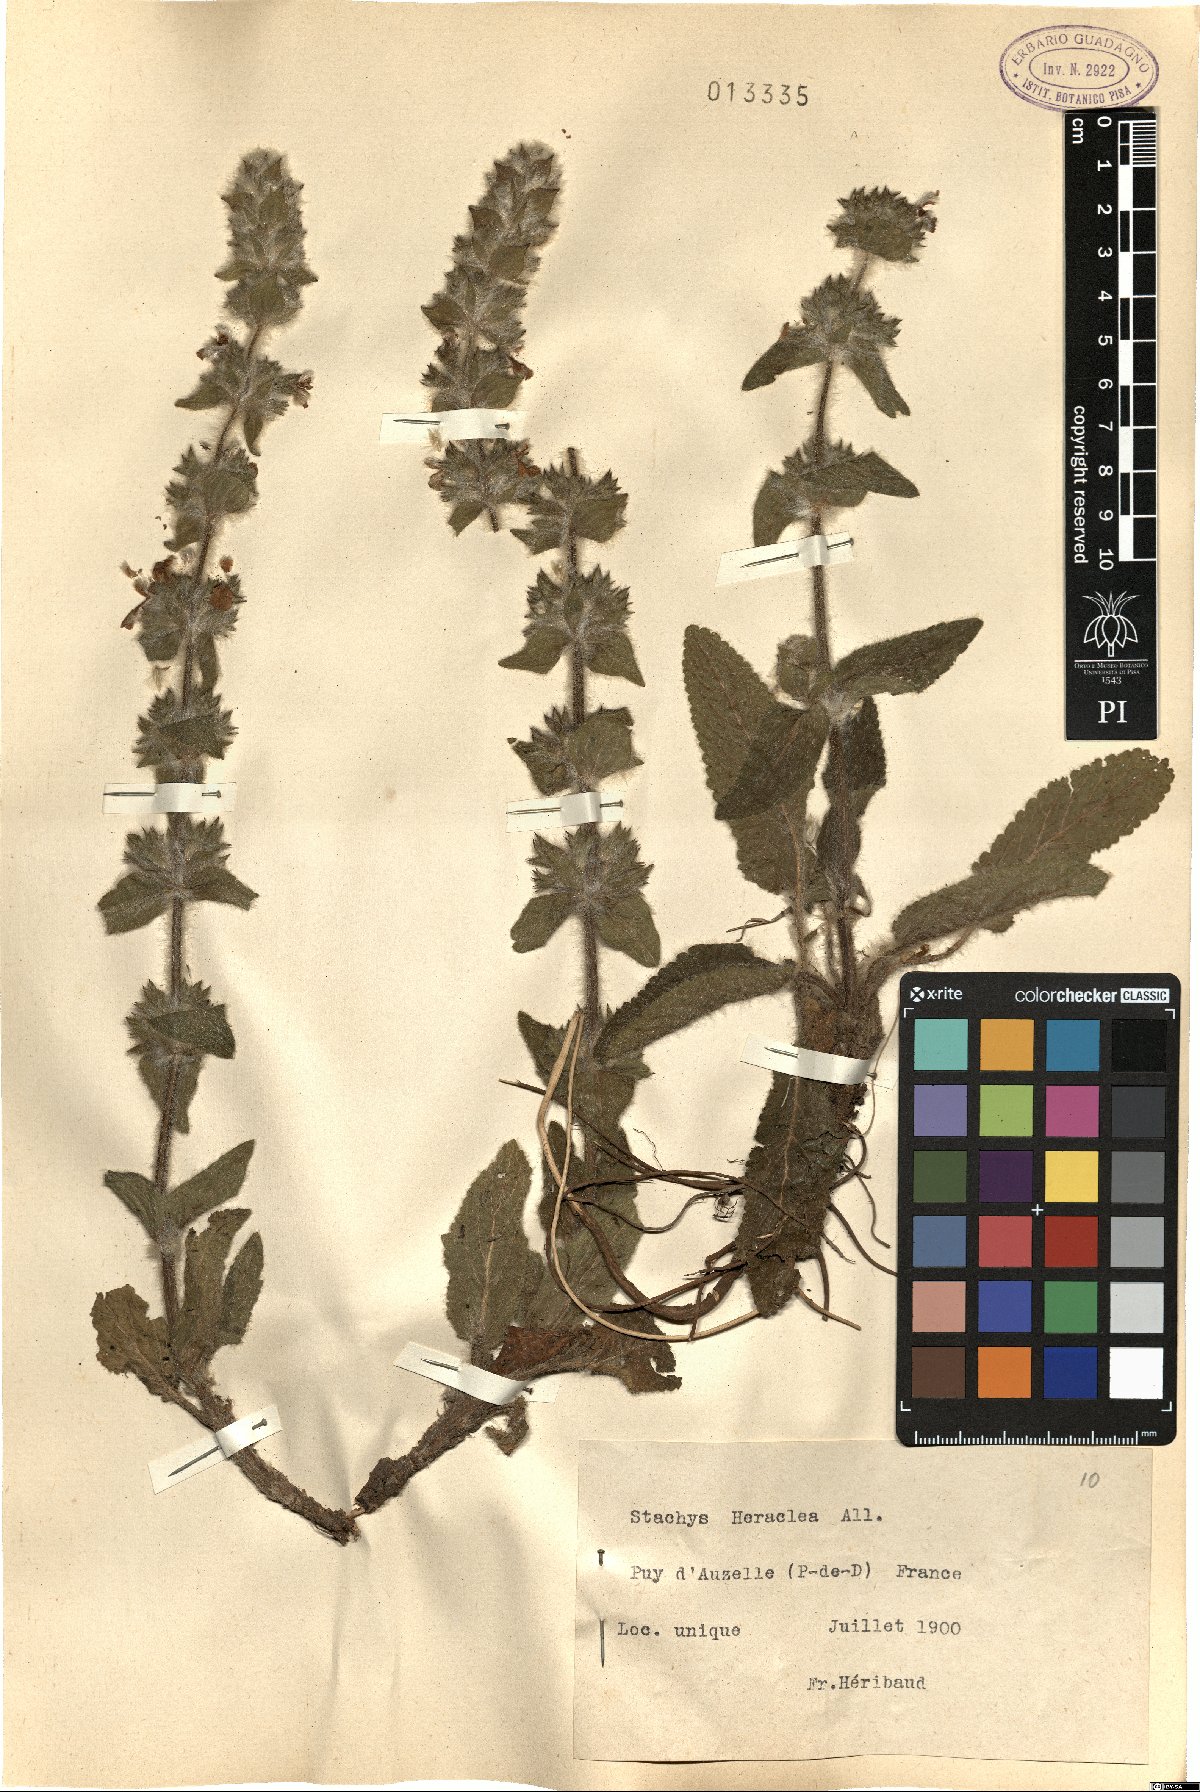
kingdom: Plantae
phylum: Tracheophyta
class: Magnoliopsida
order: Lamiales
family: Lamiaceae
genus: Stachys
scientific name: Stachys heraclea
